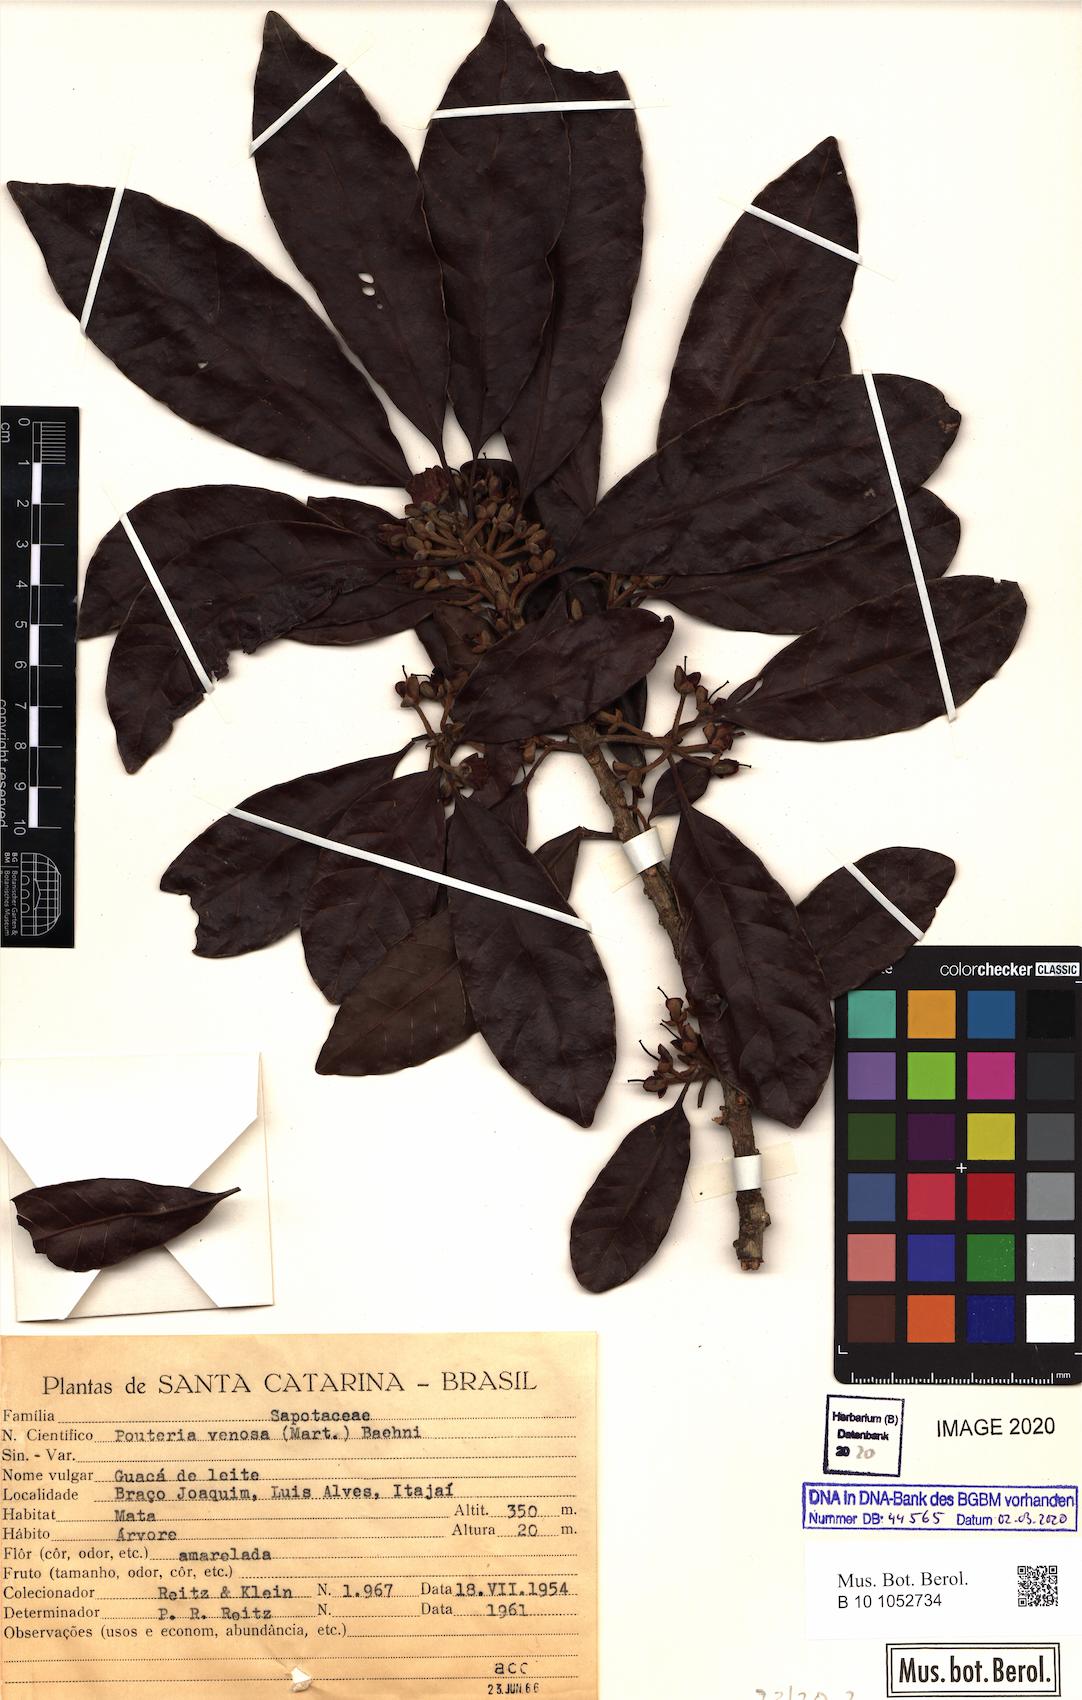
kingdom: Plantae
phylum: Tracheophyta
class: Magnoliopsida
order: Ericales
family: Sapotaceae
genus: Pouteria
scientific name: Pouteria venosa
